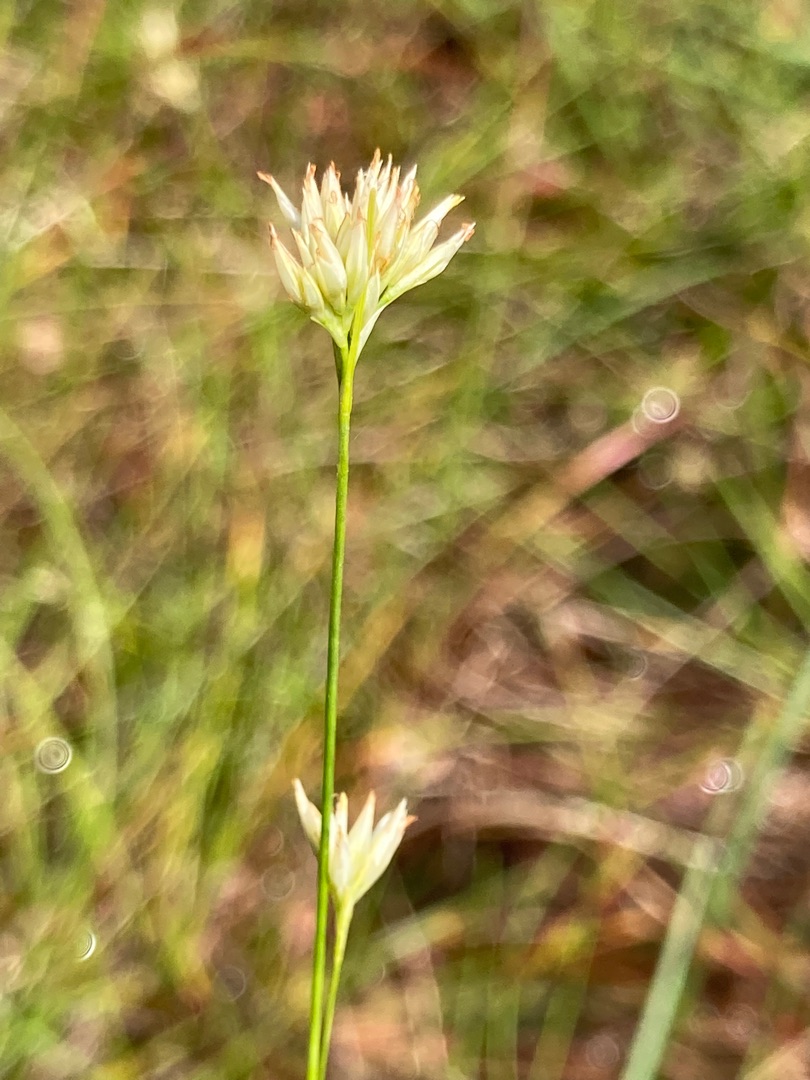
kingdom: Plantae
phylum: Tracheophyta
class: Liliopsida
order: Poales
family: Cyperaceae
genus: Rhynchospora
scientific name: Rhynchospora alba
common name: Hvid næbfrø
